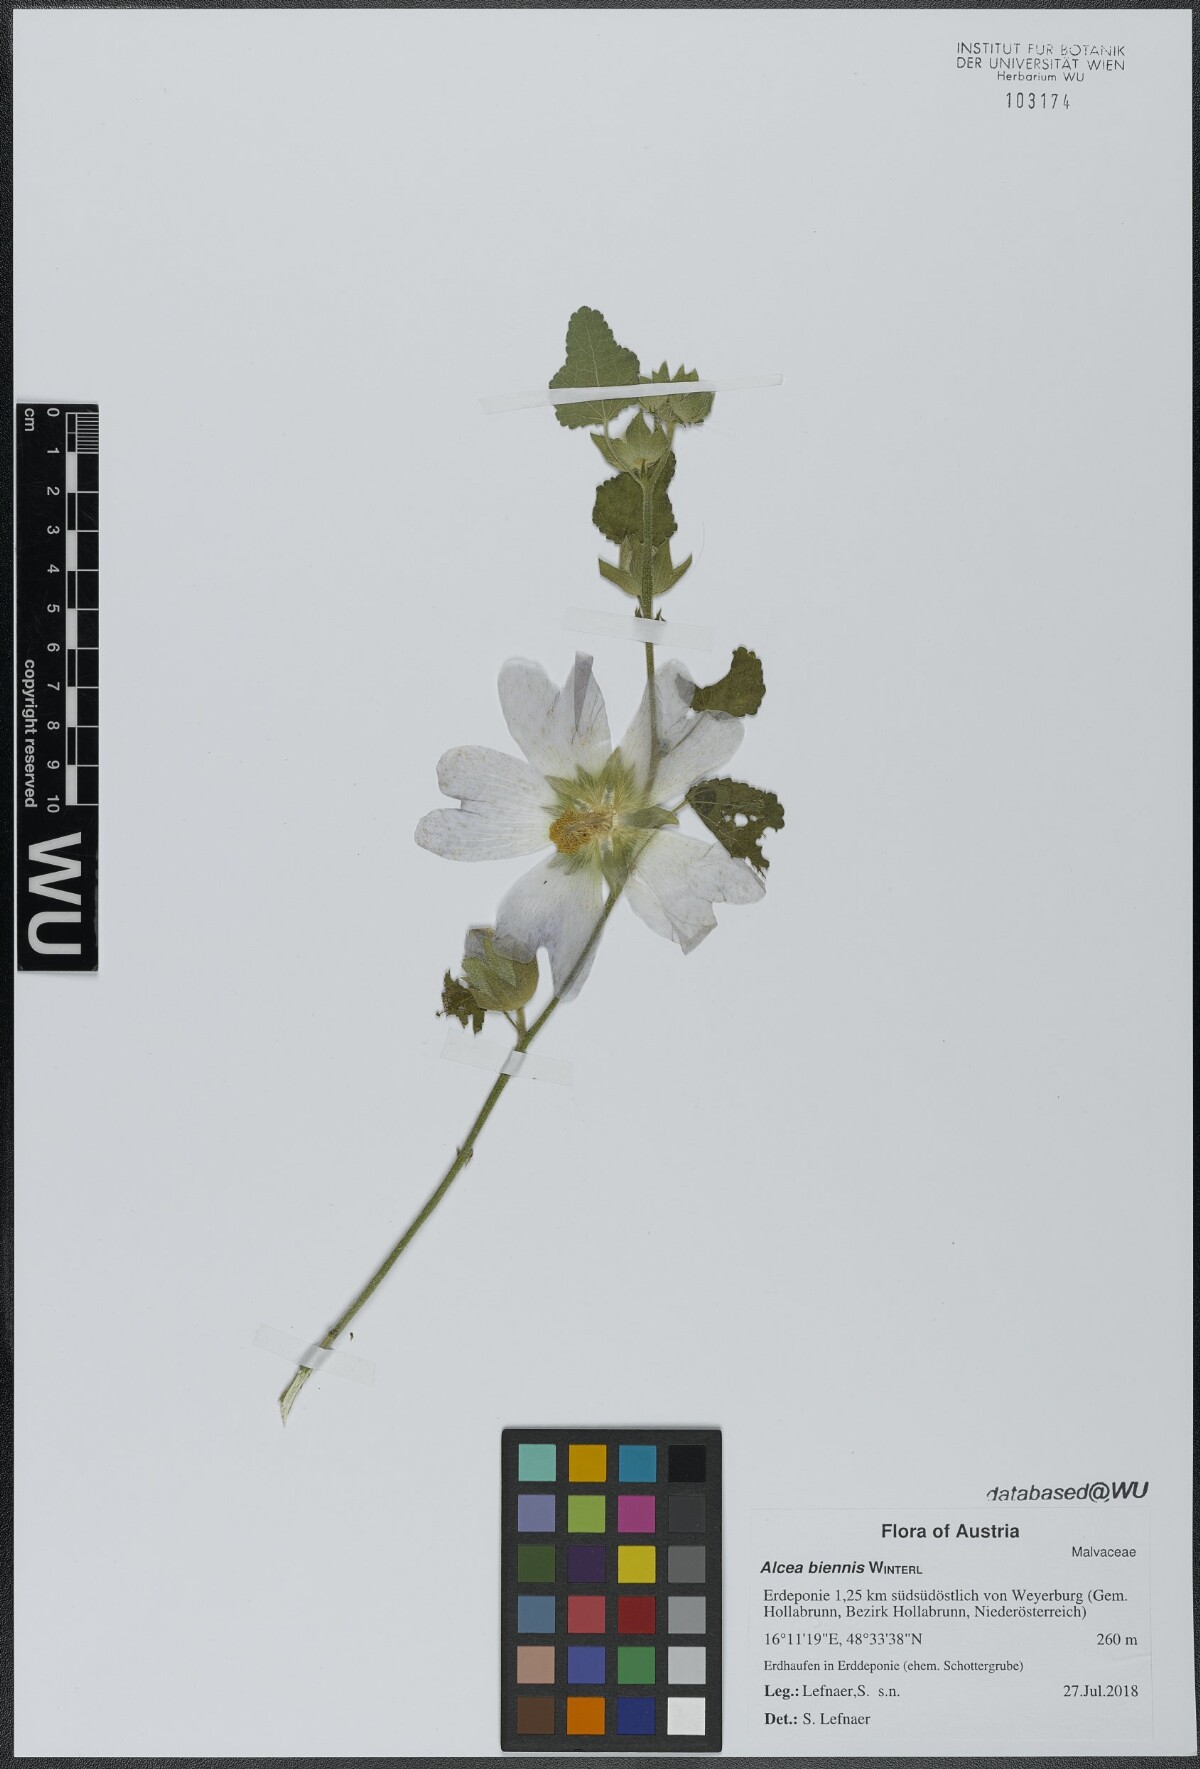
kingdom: Plantae
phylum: Tracheophyta
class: Magnoliopsida
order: Malvales
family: Malvaceae
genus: Alcea
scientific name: Alcea biennis
